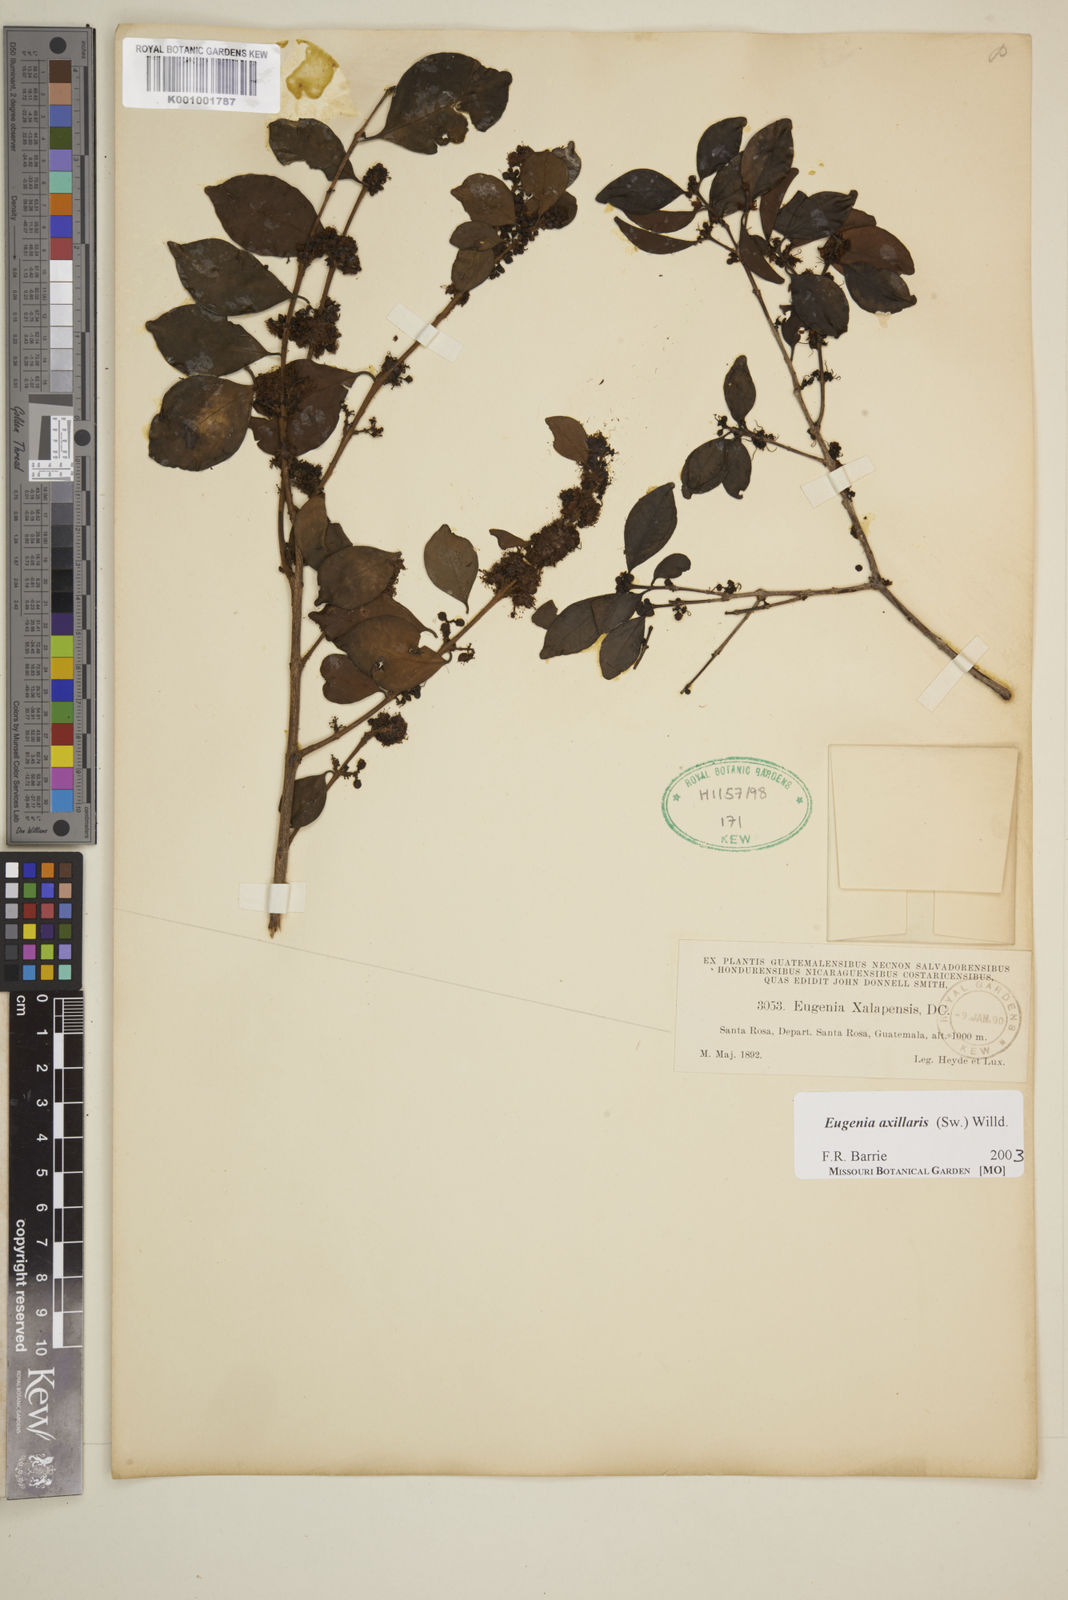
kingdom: Plantae
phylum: Tracheophyta
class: Magnoliopsida
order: Myrtales
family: Myrtaceae
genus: Eugenia
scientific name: Eugenia axillaris
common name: Choaky berry
